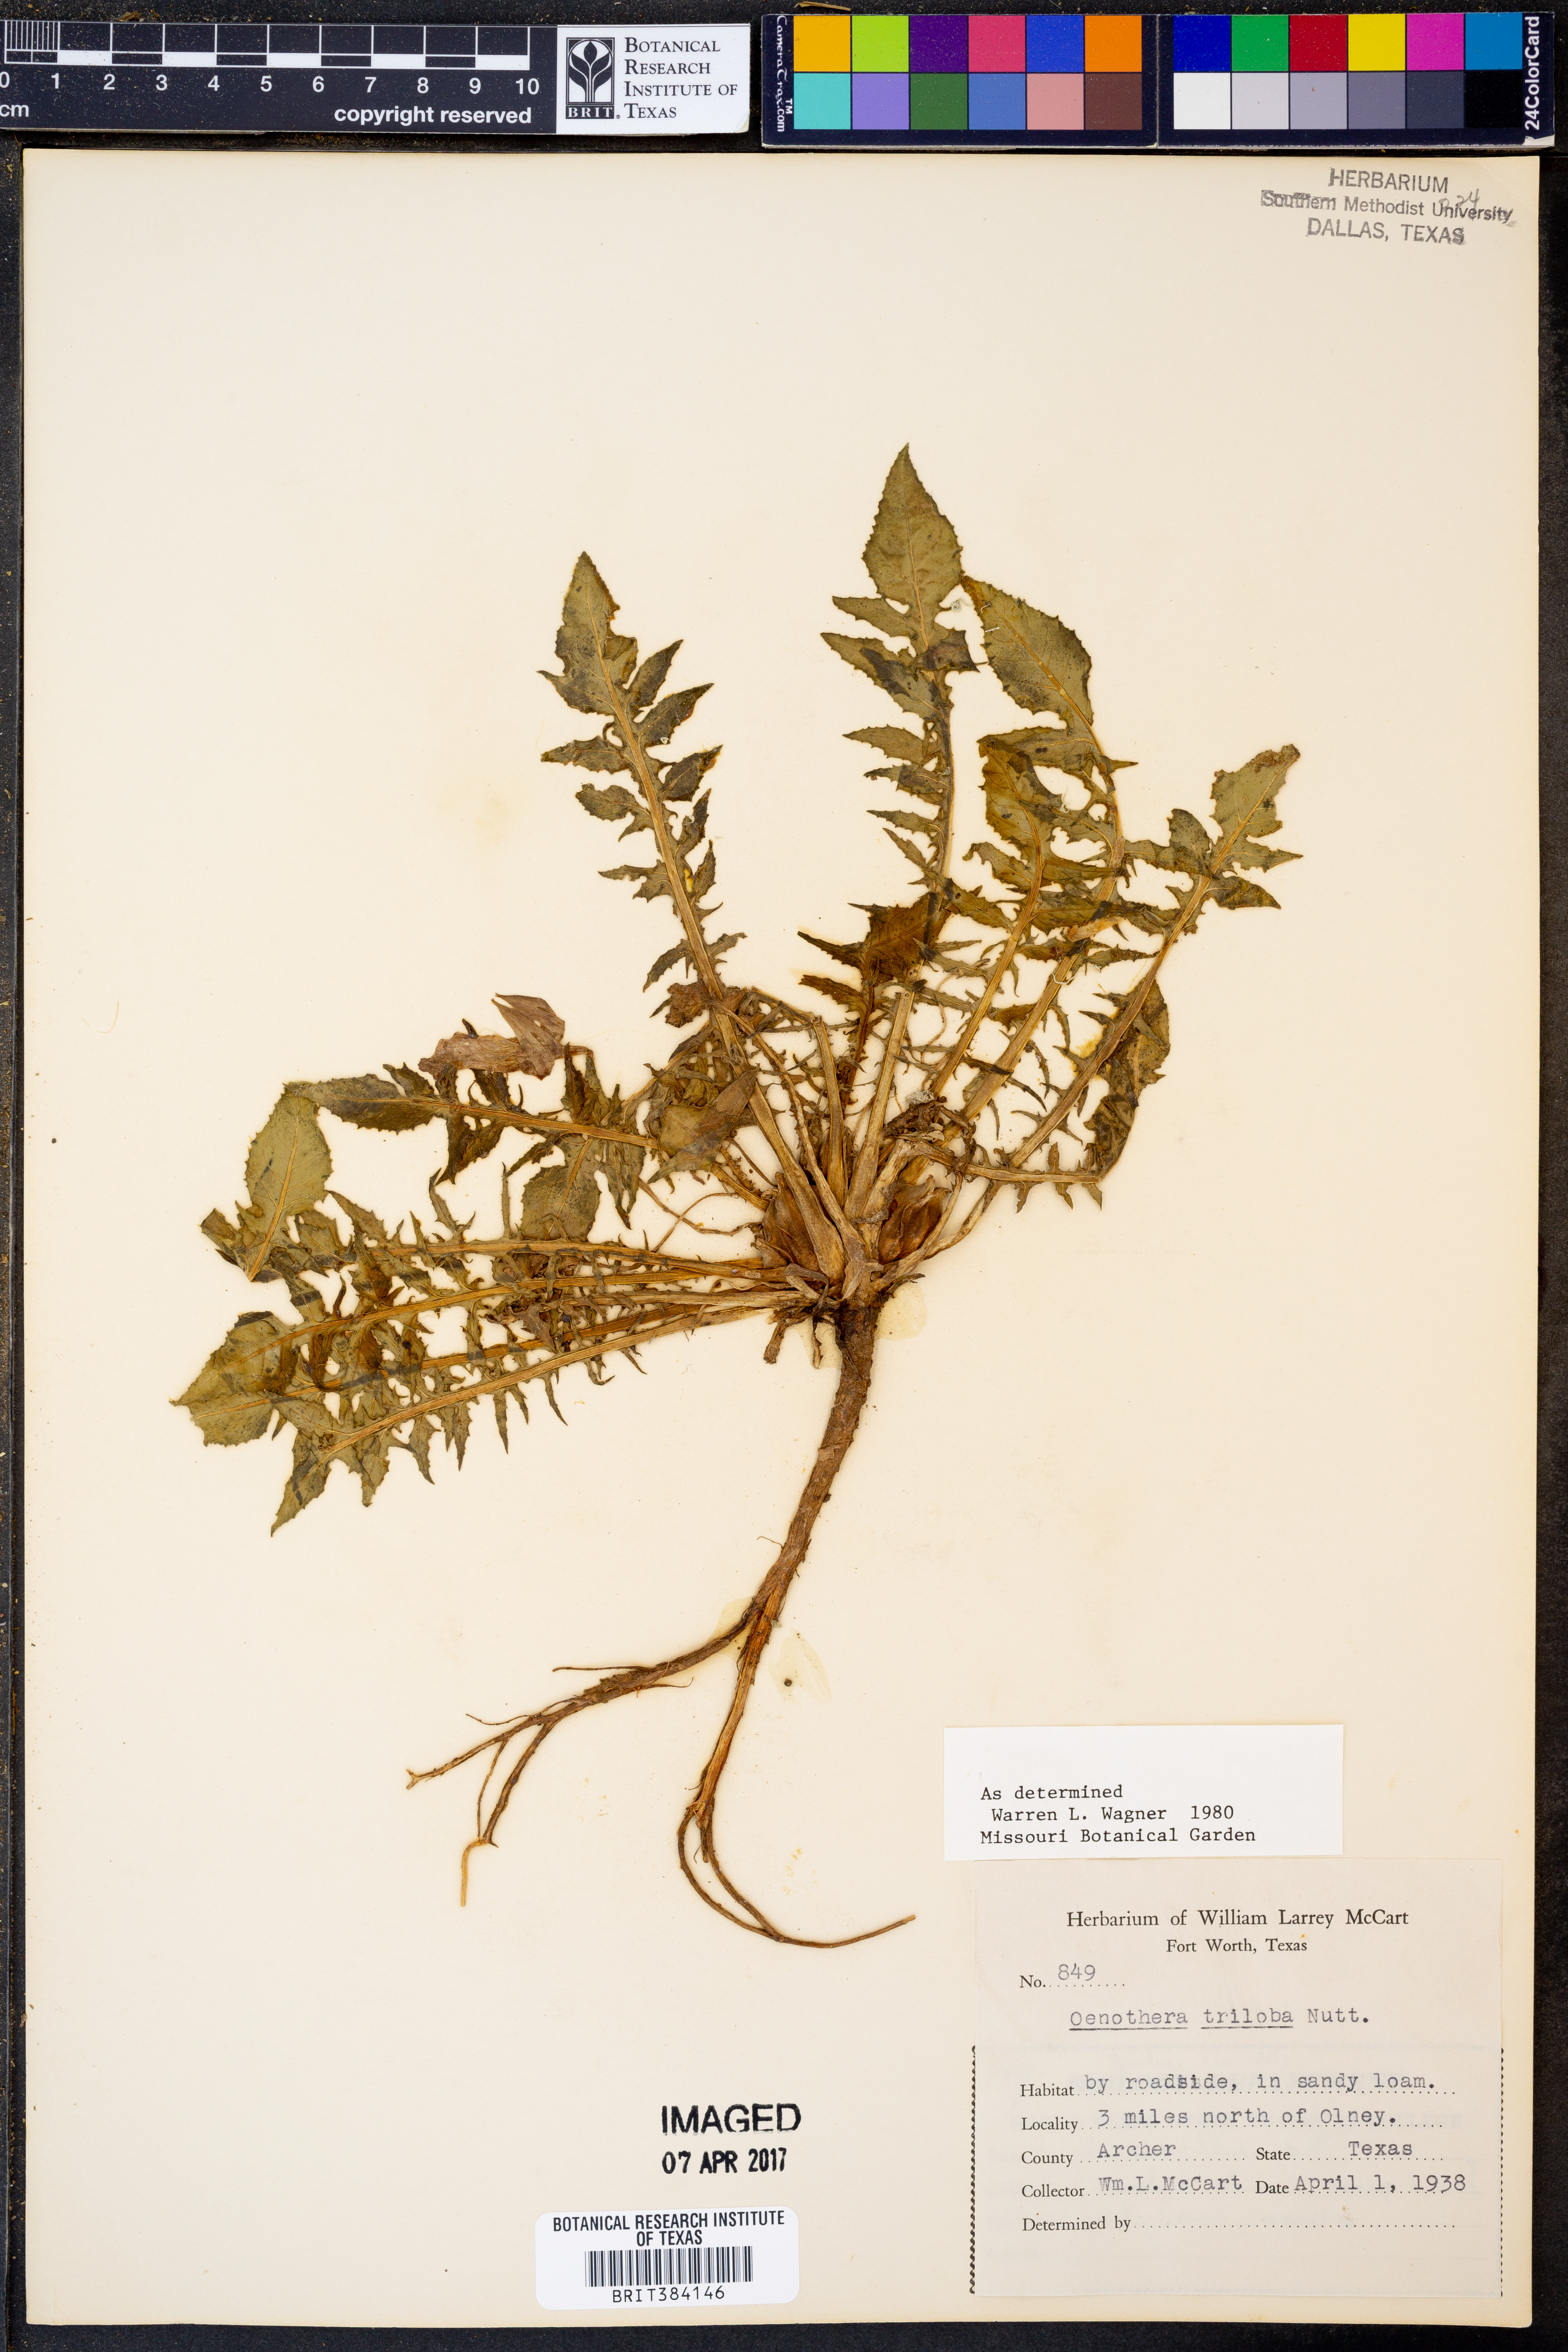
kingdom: Plantae
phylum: Tracheophyta
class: Magnoliopsida
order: Myrtales
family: Onagraceae
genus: Oenothera
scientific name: Oenothera triloba
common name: Sessile evening-primrose
